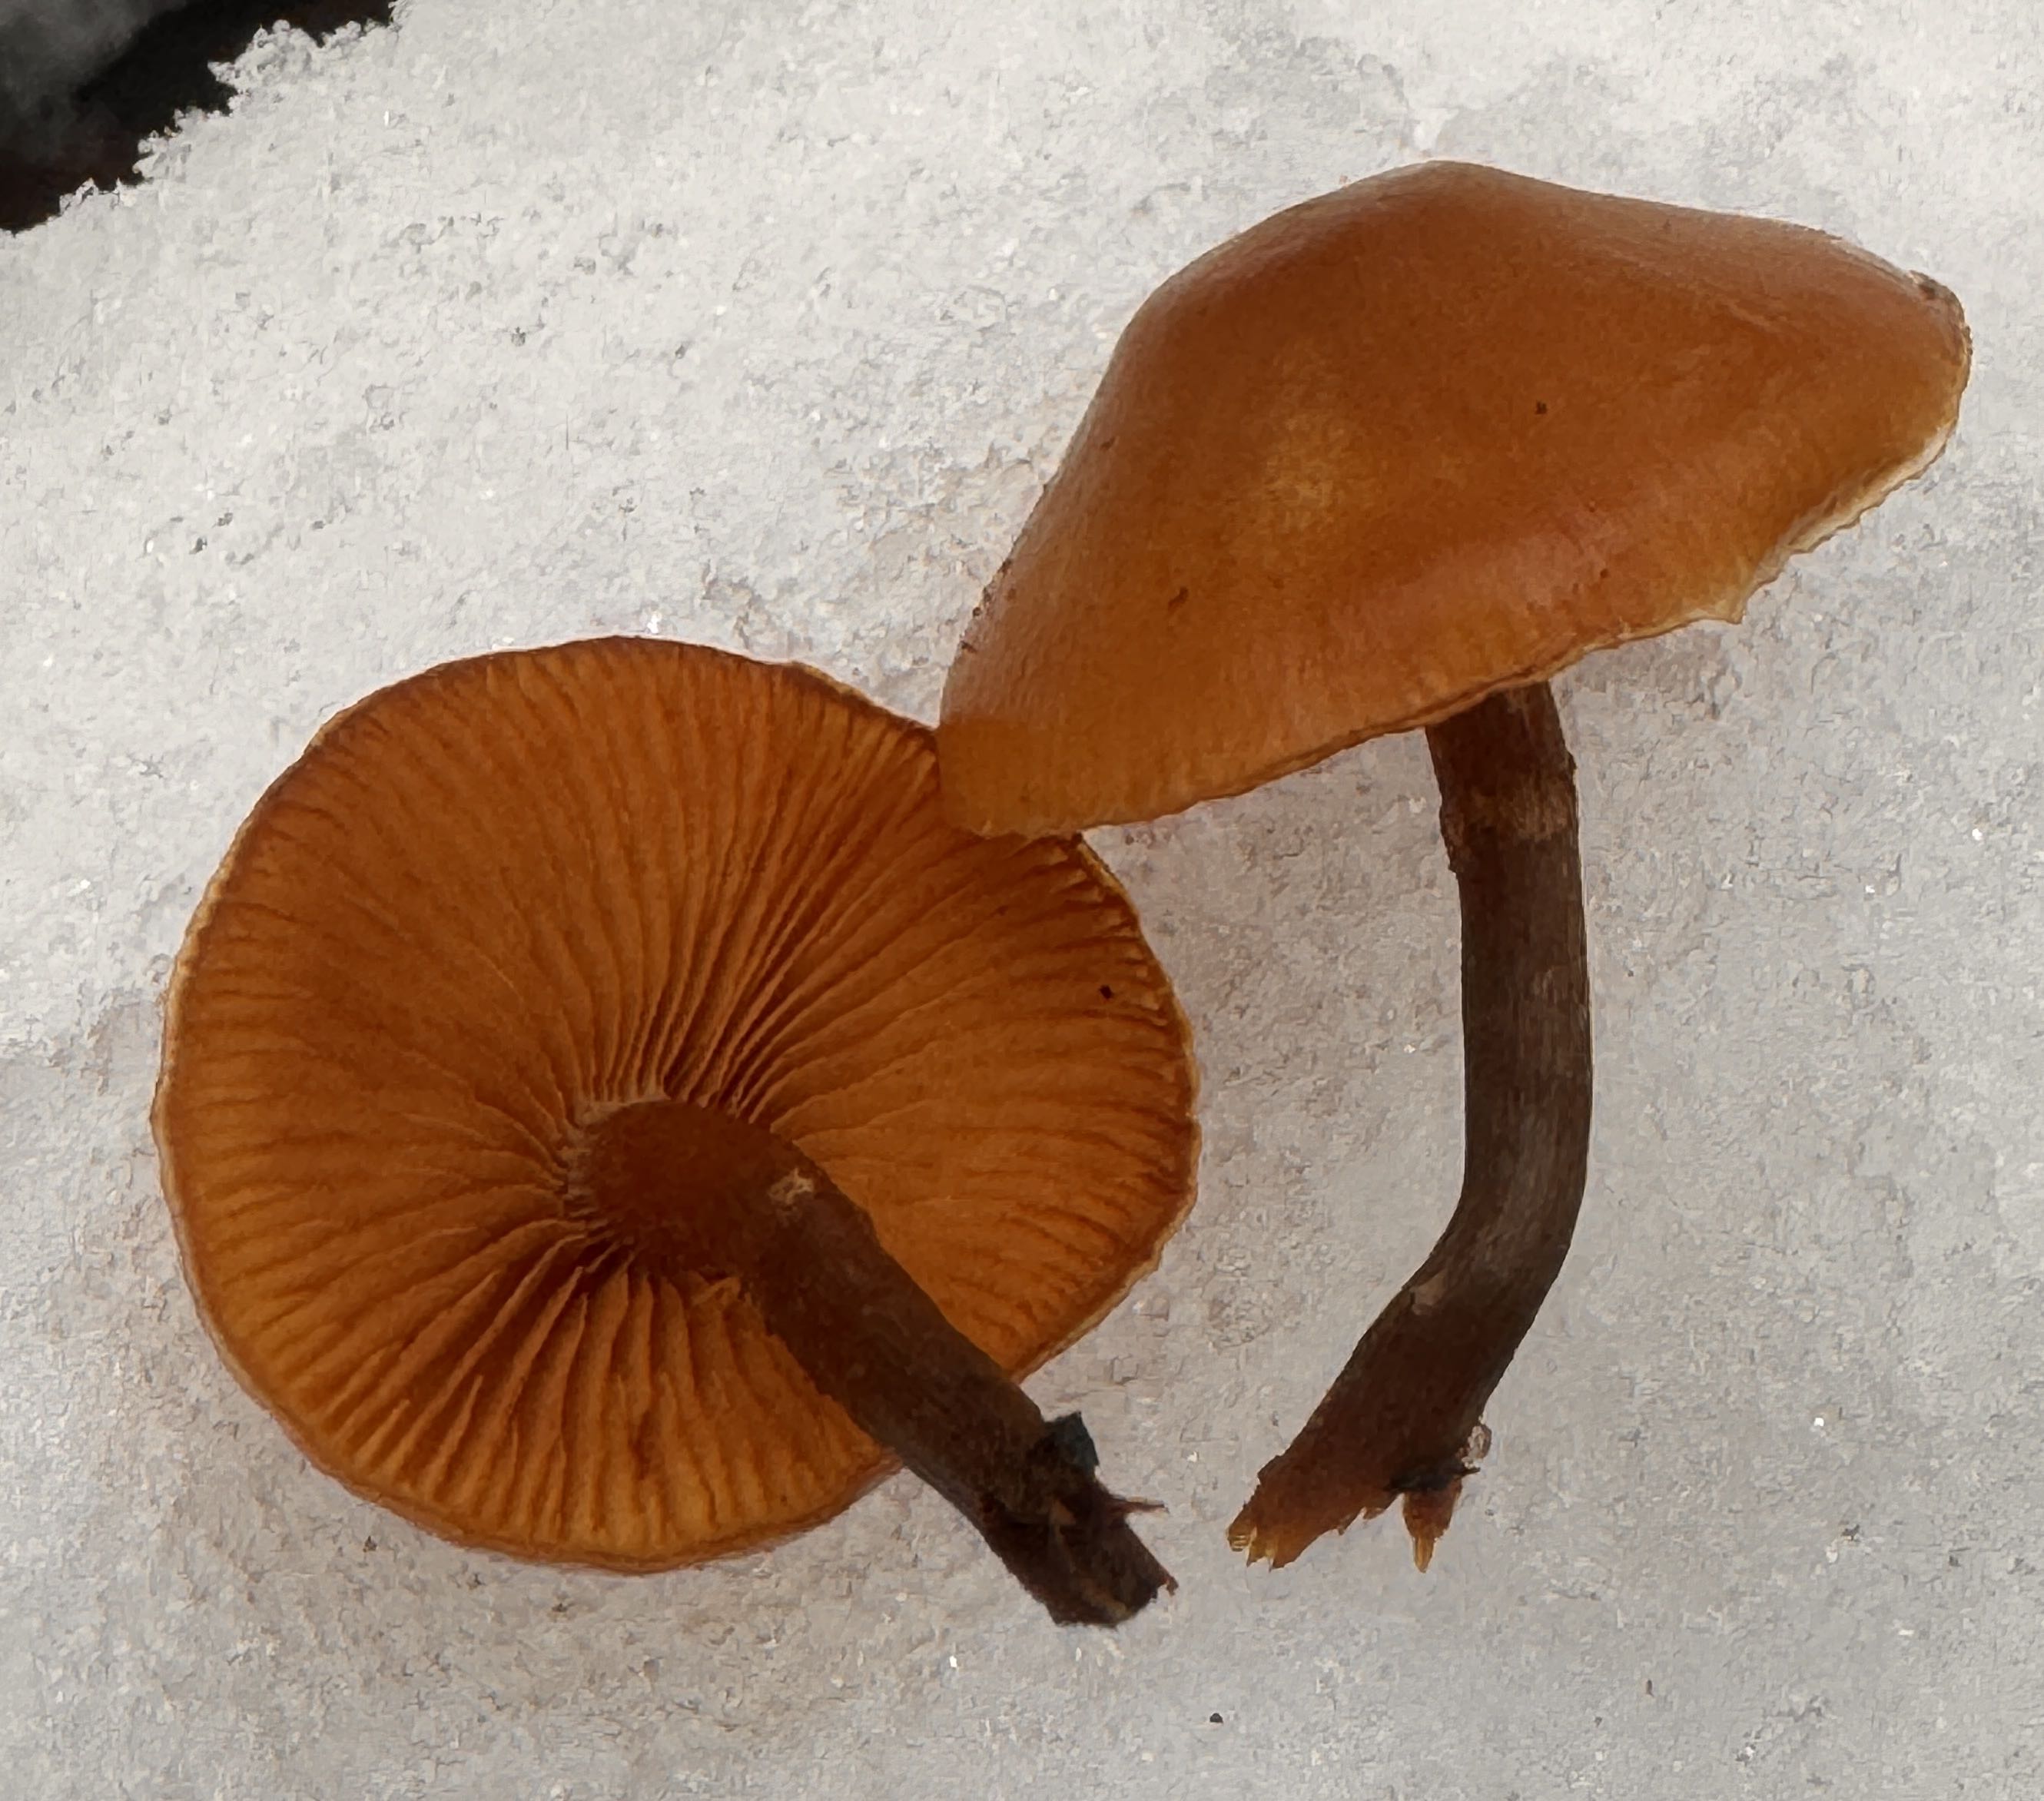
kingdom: Fungi
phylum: Basidiomycota
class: Agaricomycetes
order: Agaricales
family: Hymenogastraceae
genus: Galerina
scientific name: Galerina marginata
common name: randbæltet hjelmhat
